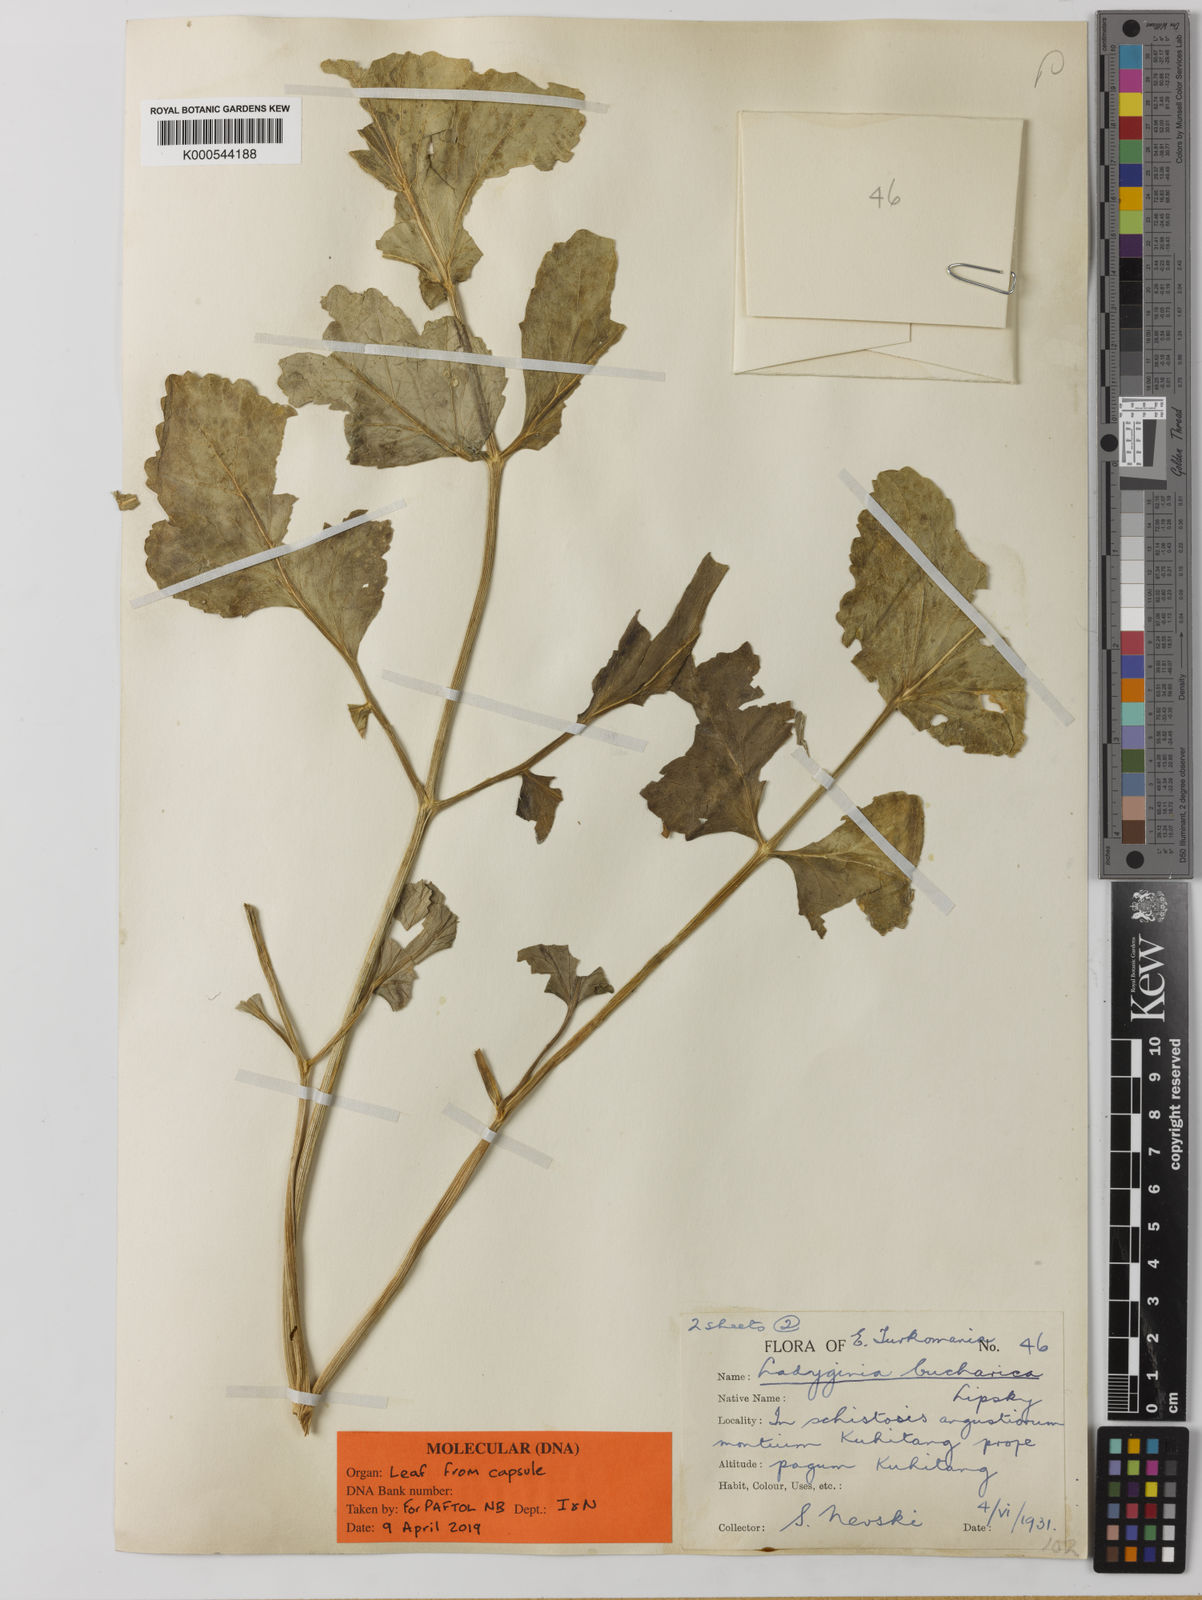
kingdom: Plantae
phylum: Tracheophyta
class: Magnoliopsida
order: Apiales
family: Apiaceae
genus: Ladyginia
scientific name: Ladyginia bucharica
